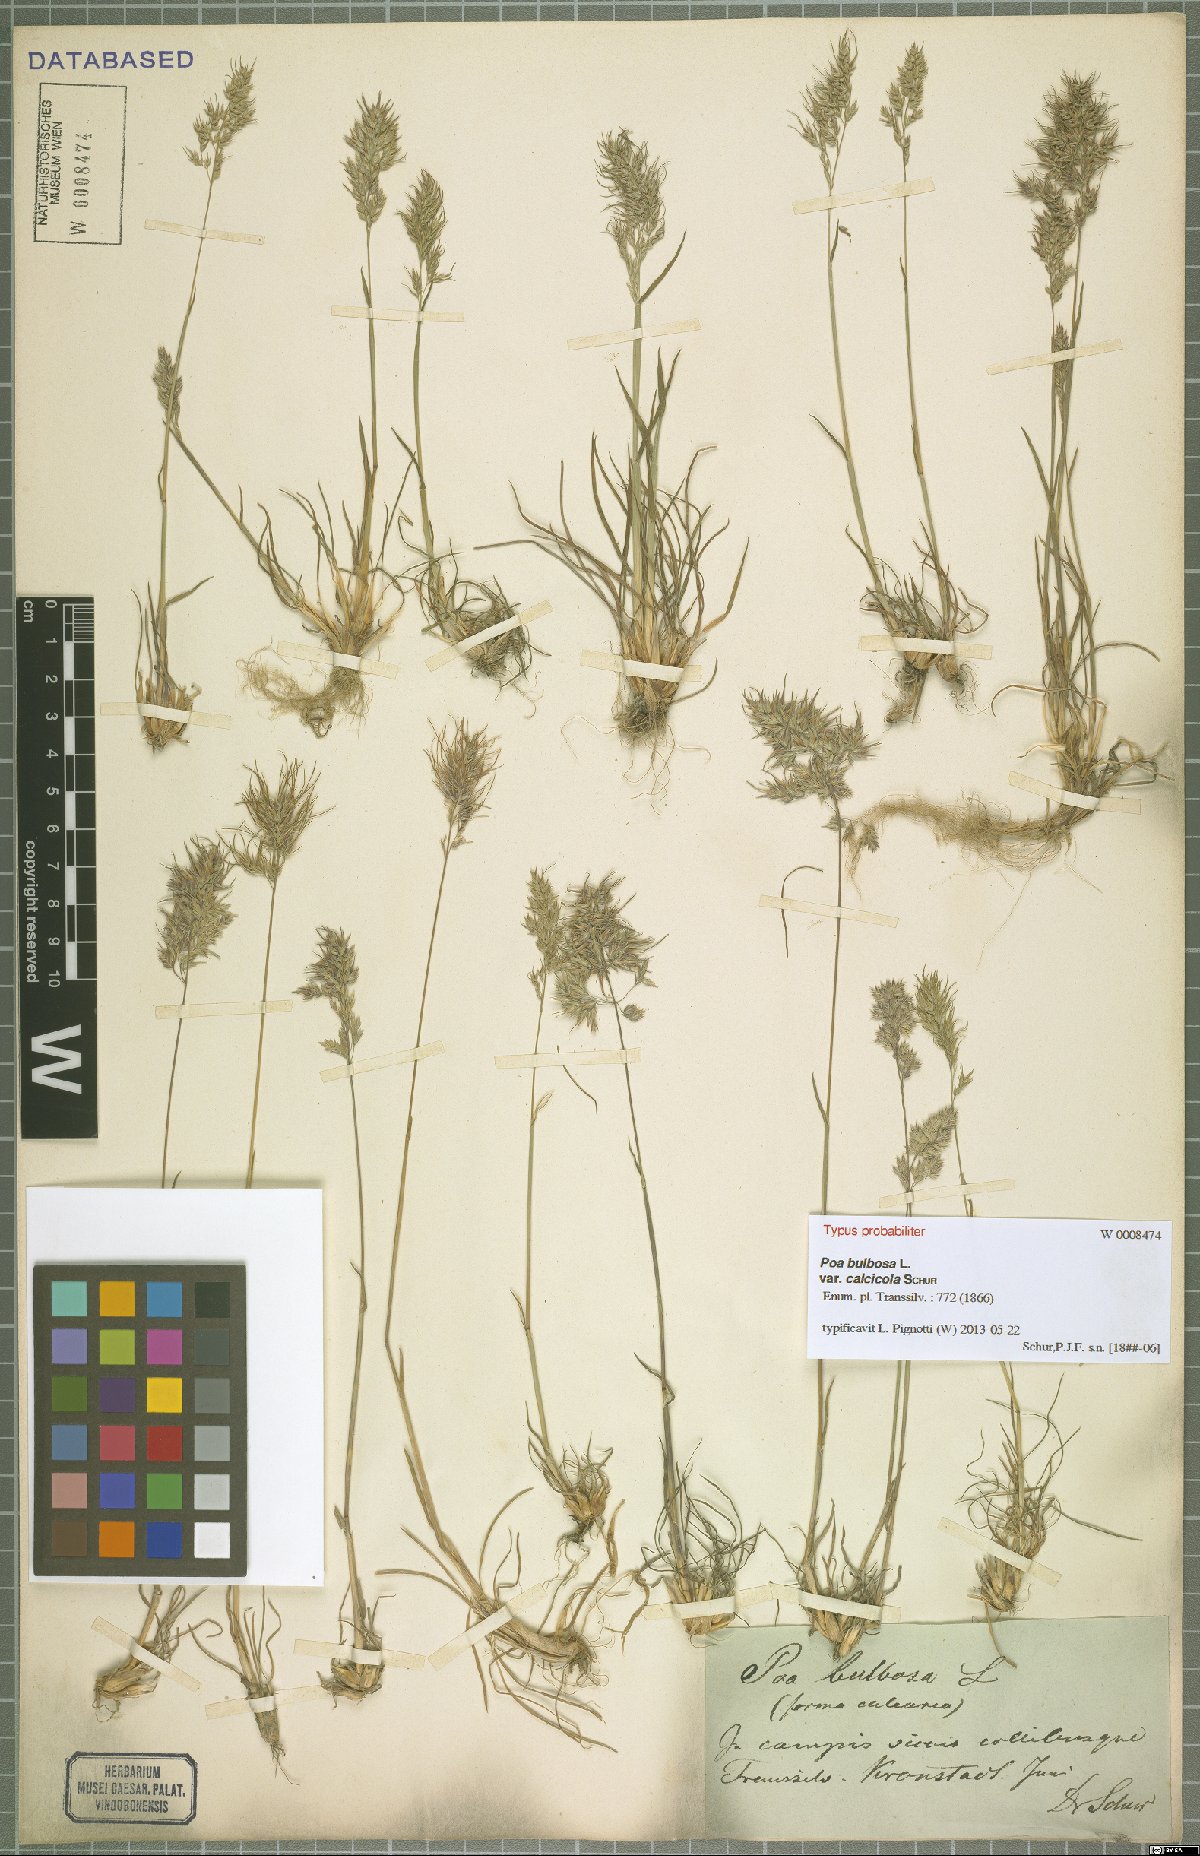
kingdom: Plantae
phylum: Tracheophyta
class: Liliopsida
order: Poales
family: Poaceae
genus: Poa
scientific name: Poa bulbosa
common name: Bulbous bluegrass
